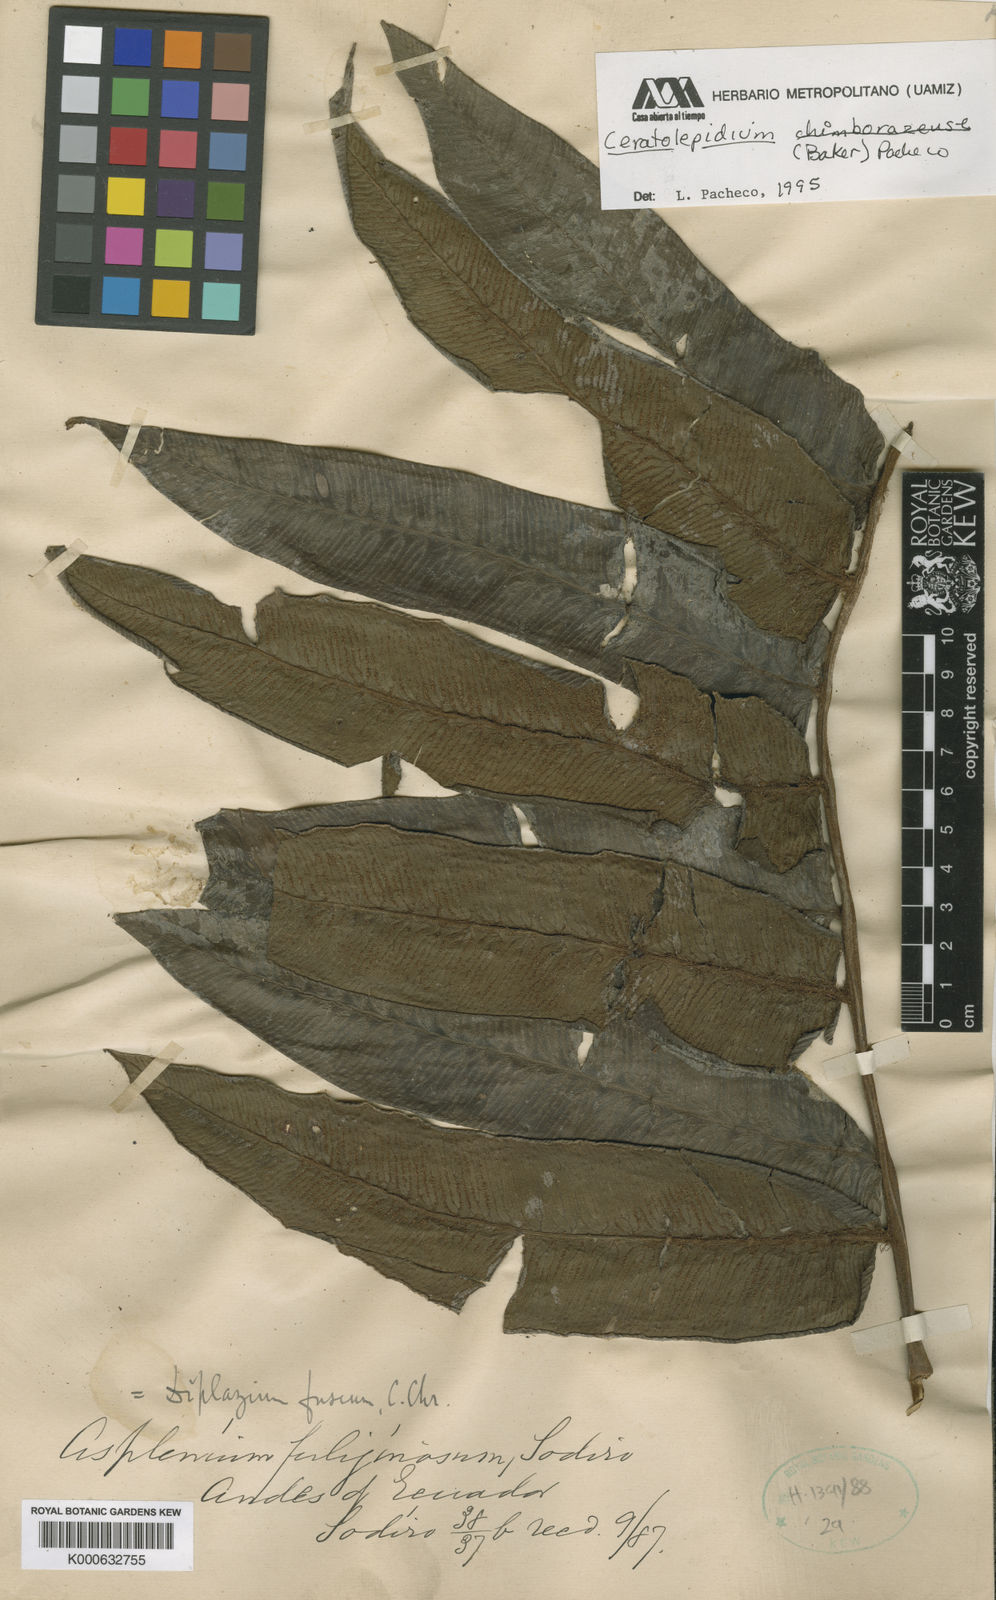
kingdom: Plantae
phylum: Tracheophyta
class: Polypodiopsida
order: Polypodiales
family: Athyriaceae
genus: Diplazium
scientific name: Diplazium chimborazense
